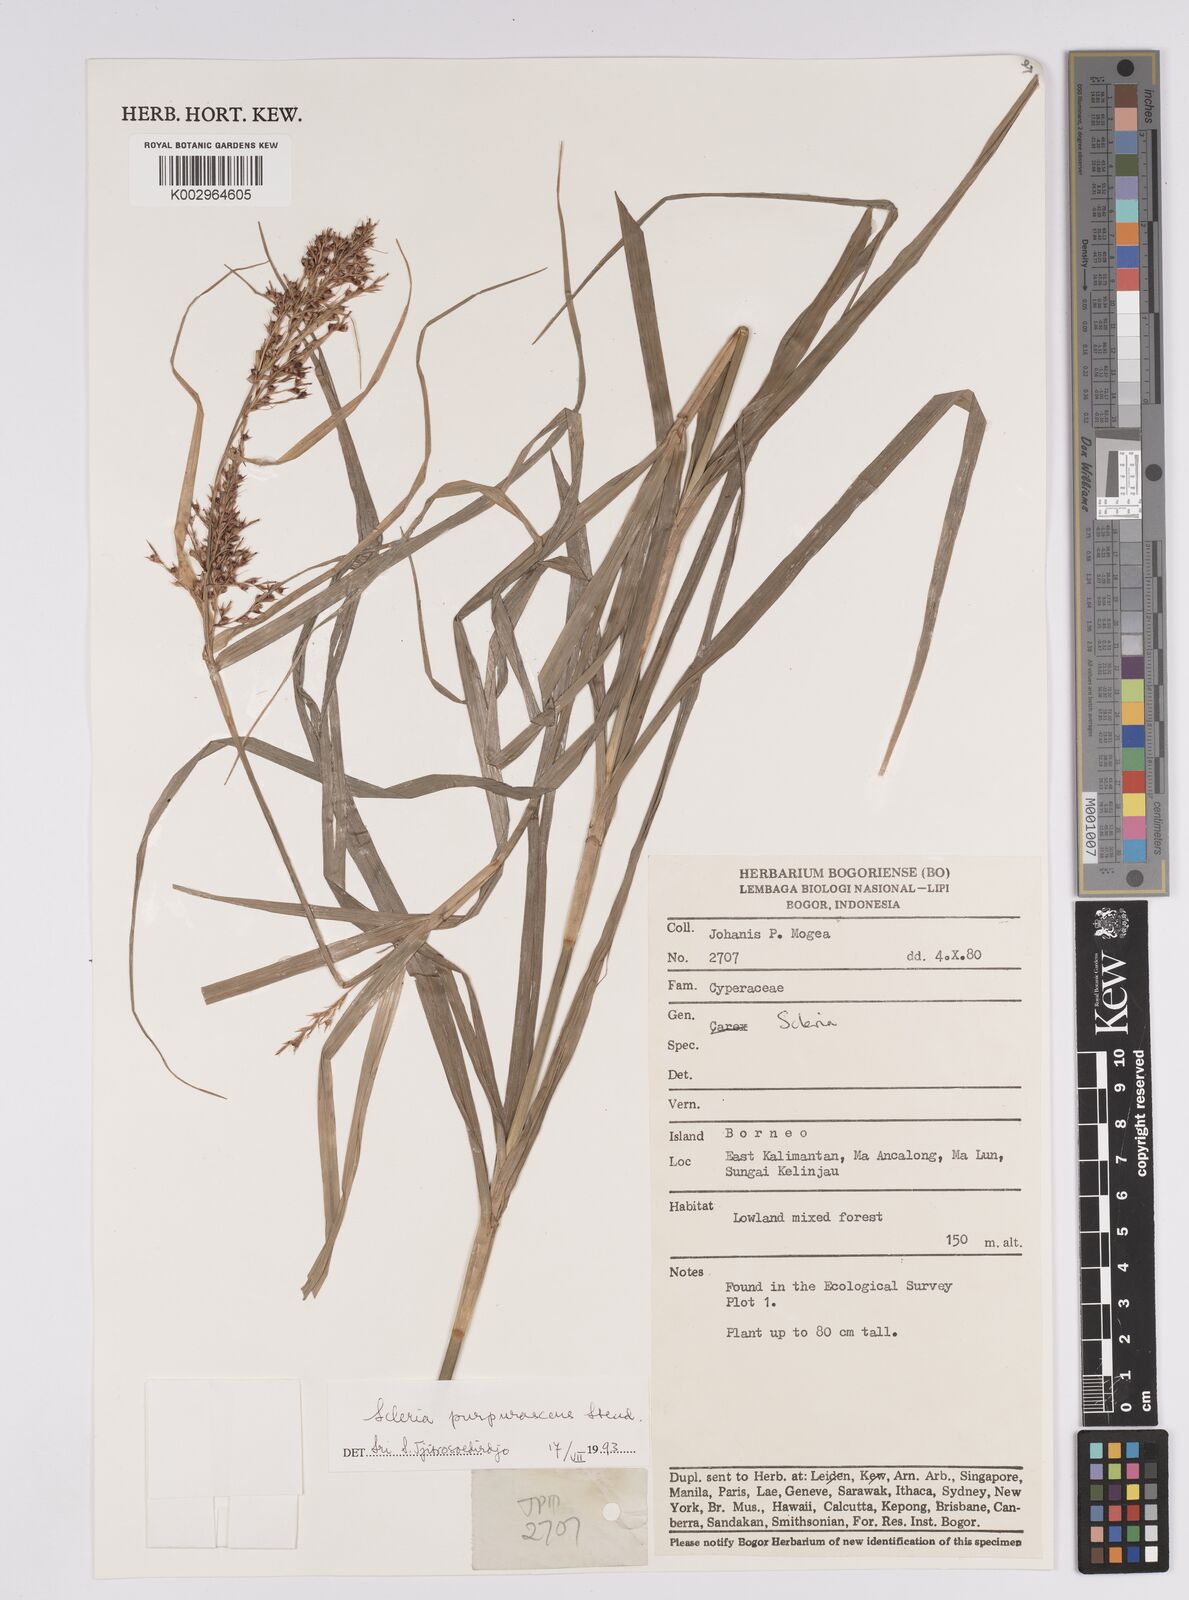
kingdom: Plantae
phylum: Tracheophyta
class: Liliopsida
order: Poales
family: Cyperaceae
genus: Scleria
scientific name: Scleria purpurascens
